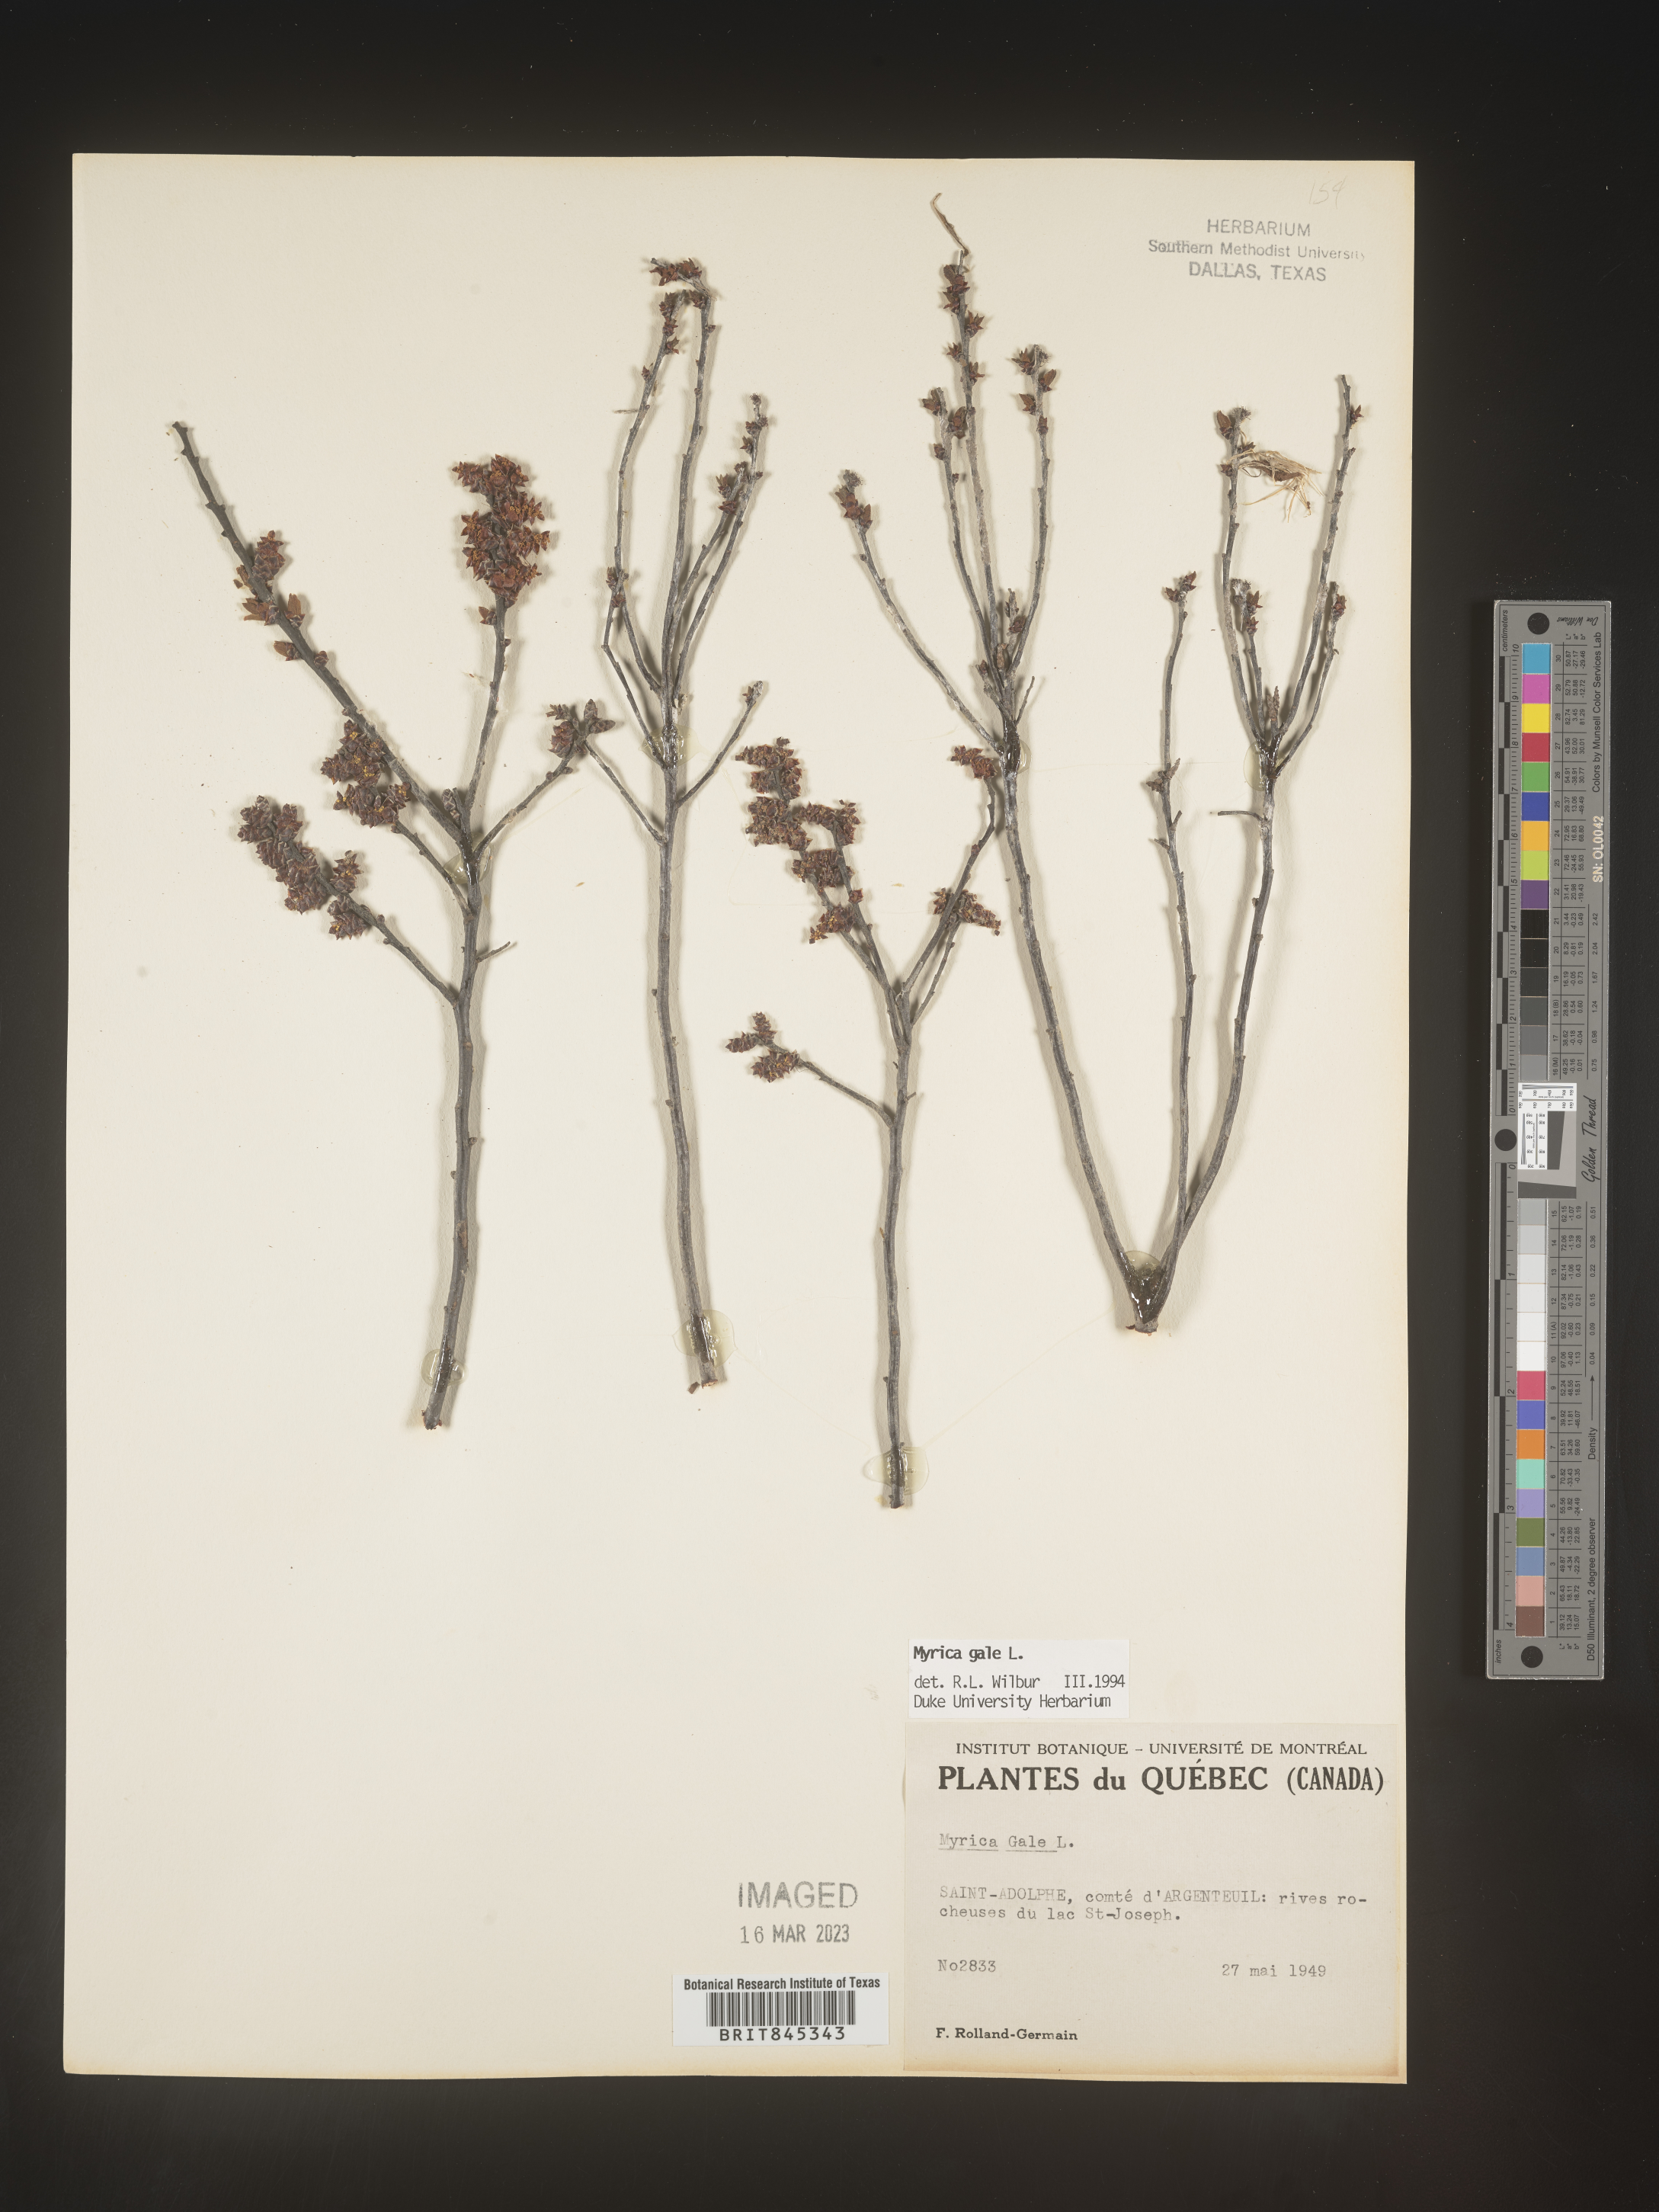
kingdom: Plantae
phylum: Tracheophyta
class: Magnoliopsida
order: Fagales
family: Myricaceae
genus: Myrica
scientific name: Myrica gale
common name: Sweet gale
